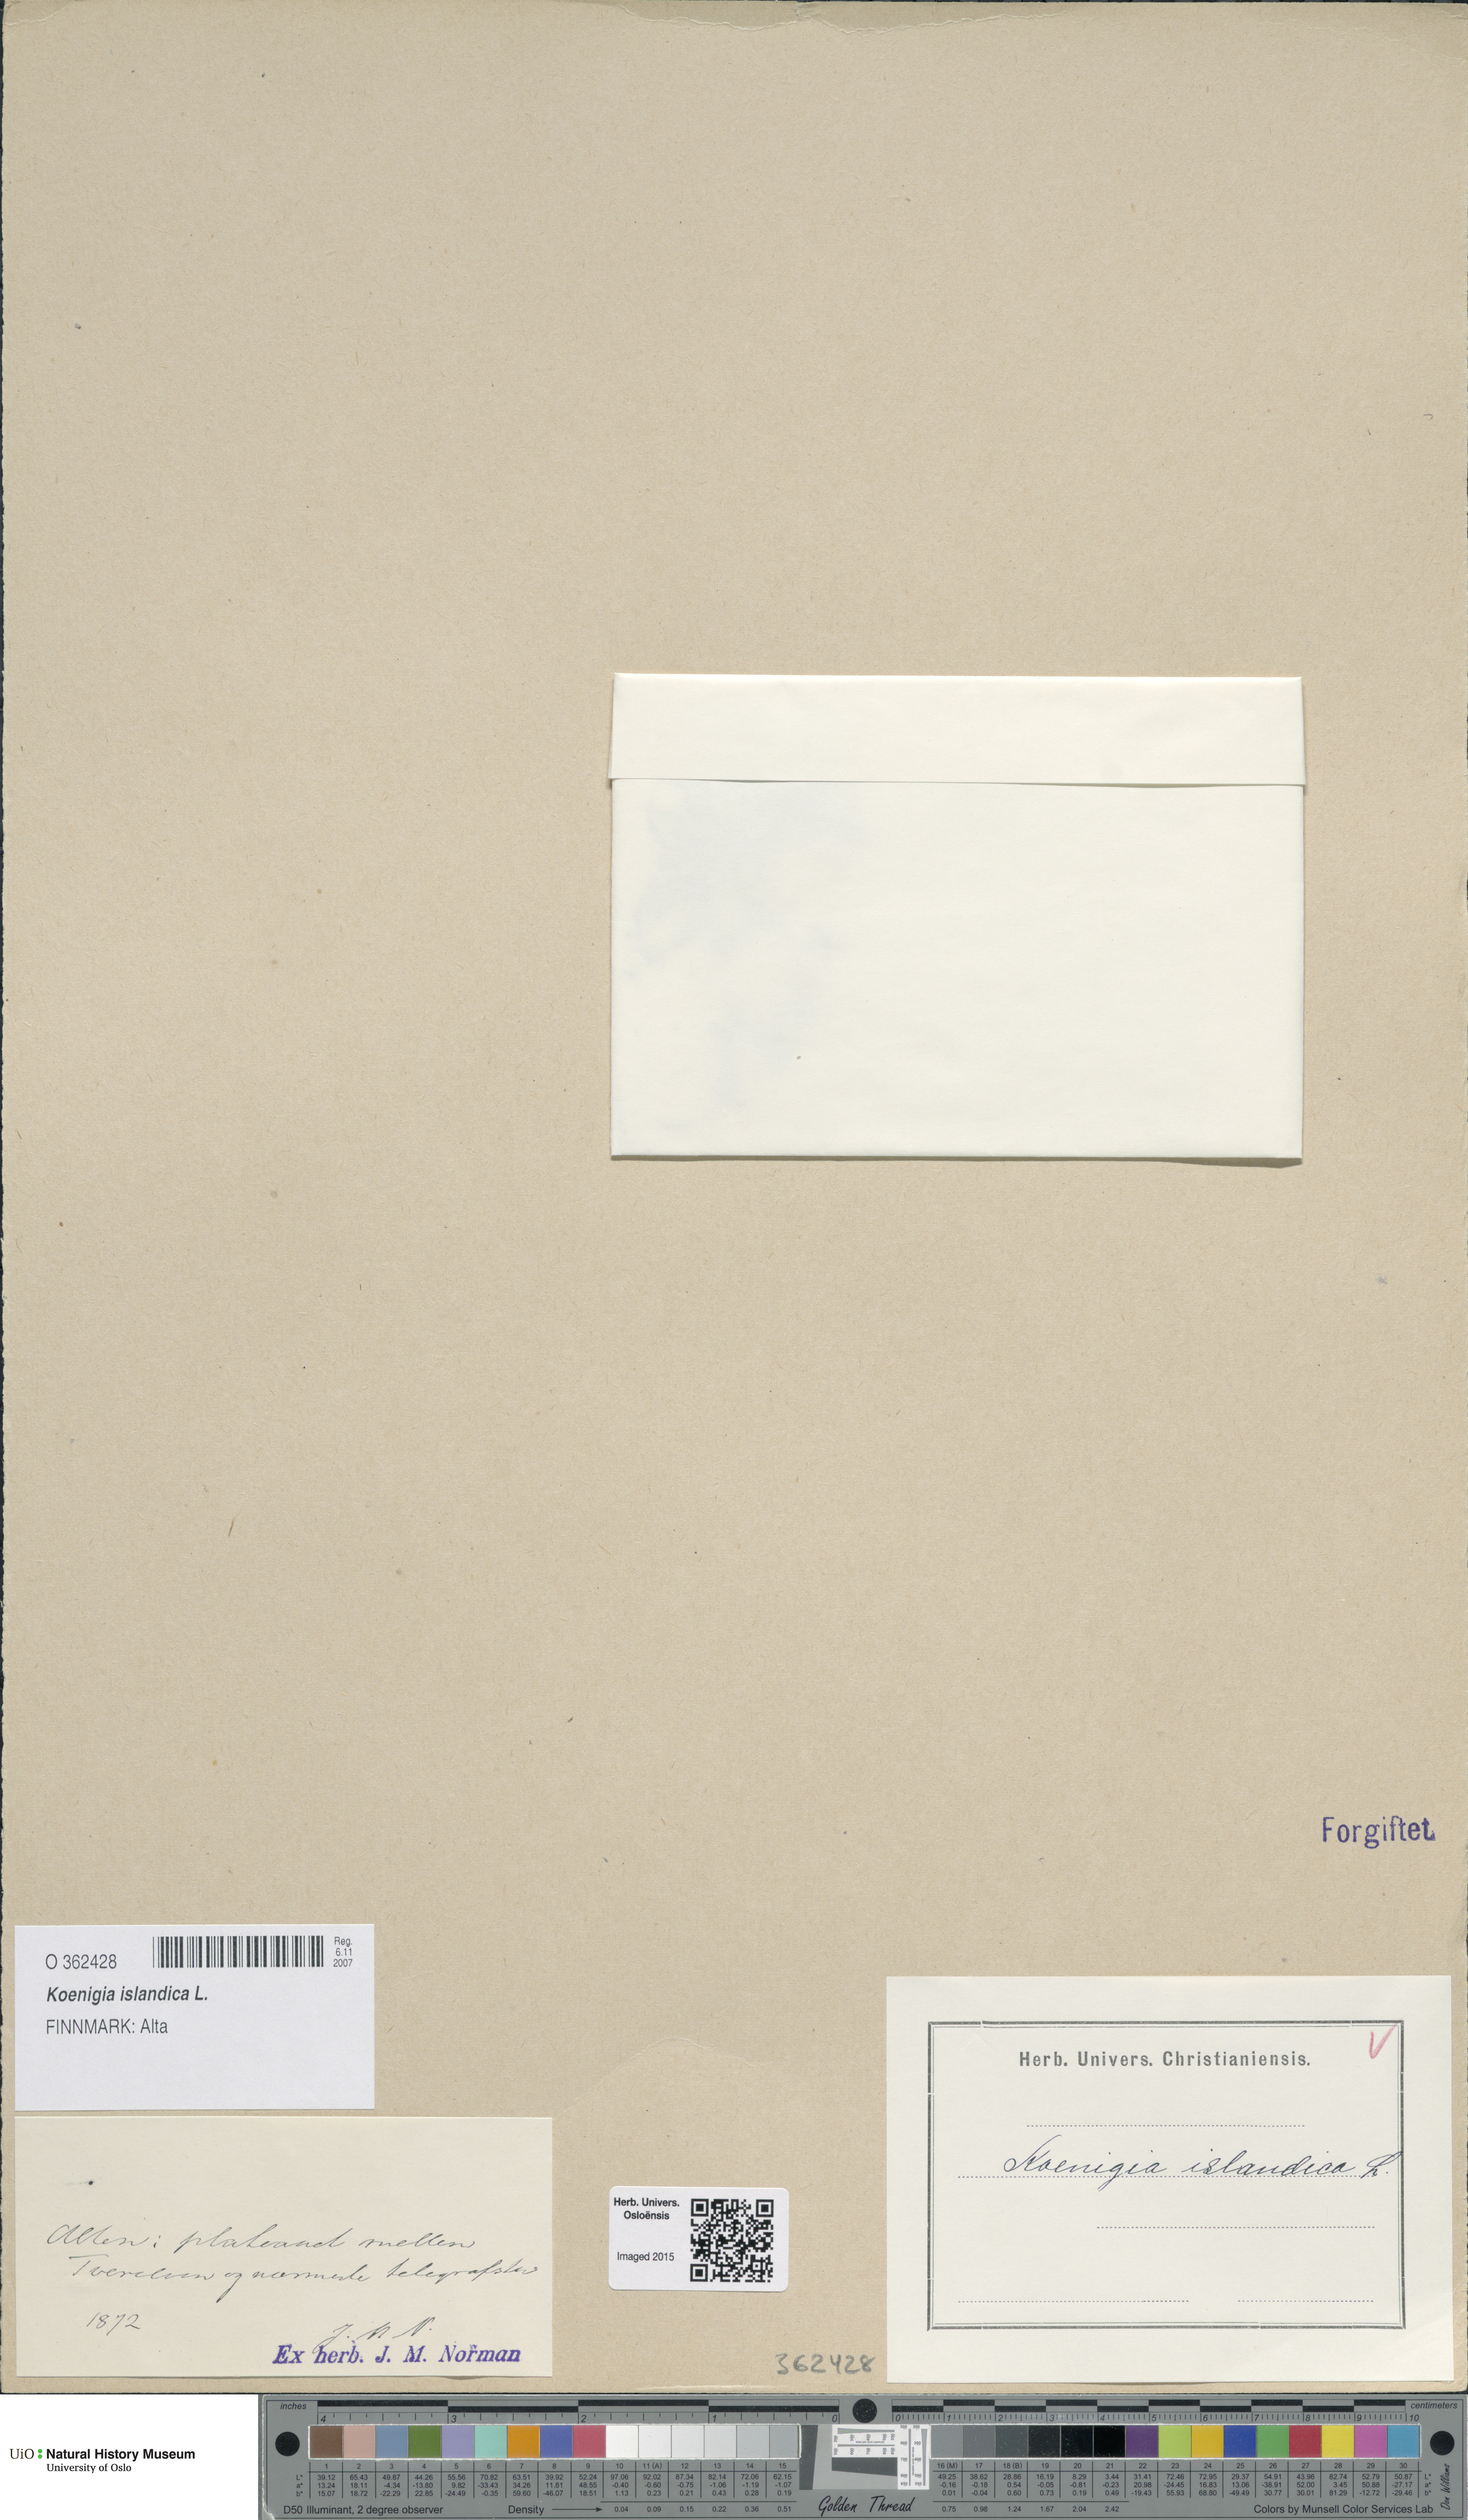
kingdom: Plantae
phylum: Tracheophyta
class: Magnoliopsida
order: Caryophyllales
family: Polygonaceae
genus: Koenigia
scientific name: Koenigia islandica
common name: Iceland-purslane
